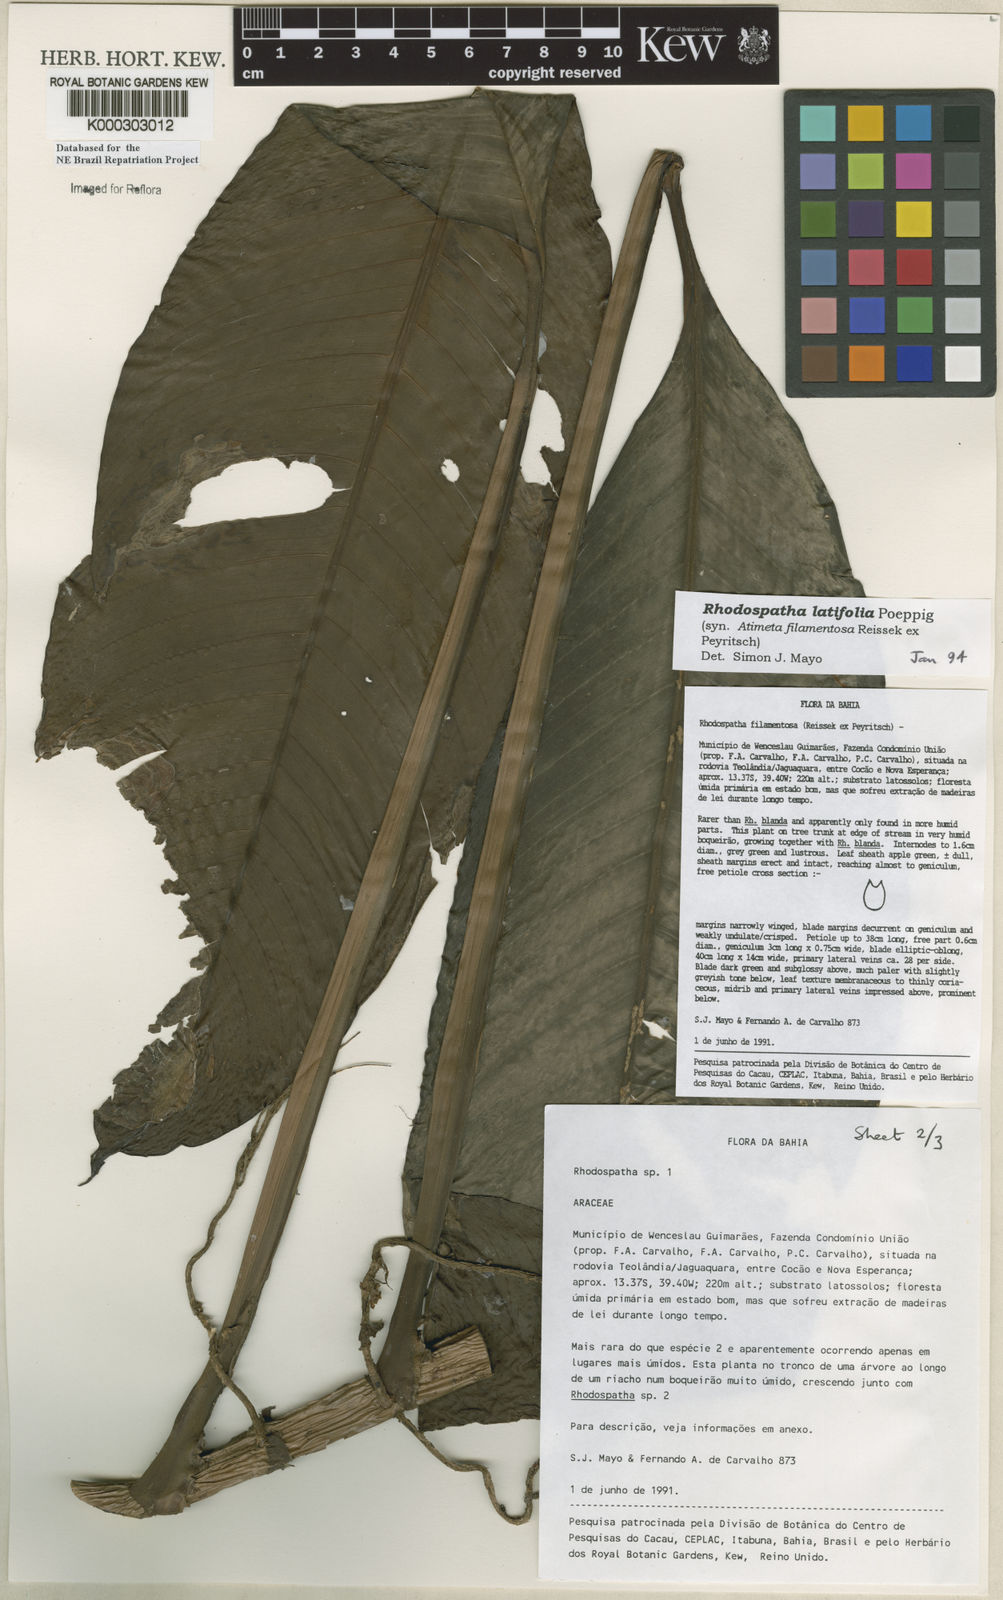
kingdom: Plantae
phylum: Tracheophyta
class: Liliopsida
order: Alismatales
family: Araceae
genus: Rhodospatha
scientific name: Rhodospatha latifolia
